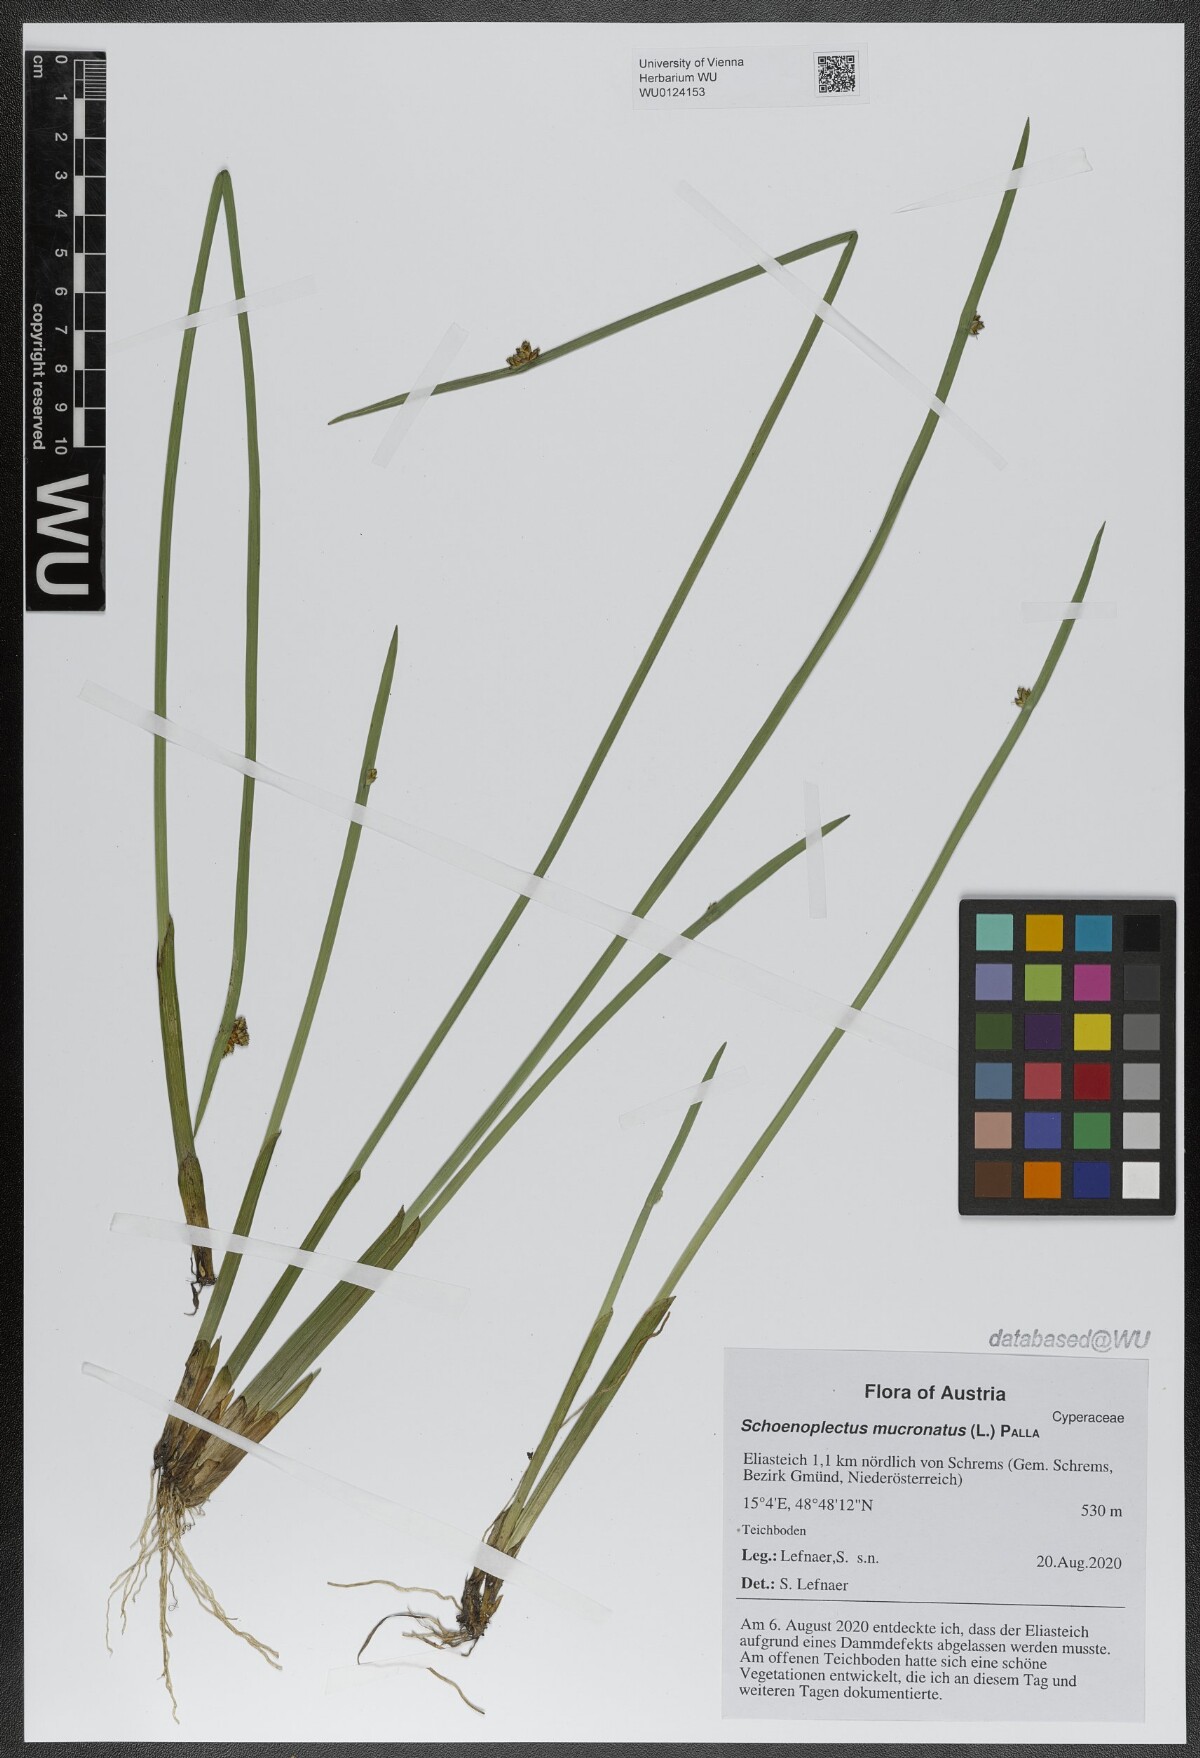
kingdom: Plantae
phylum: Tracheophyta
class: Liliopsida
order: Poales
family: Cyperaceae
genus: Schoenoplectiella
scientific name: Schoenoplectiella mucronata
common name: Bog bulrush
